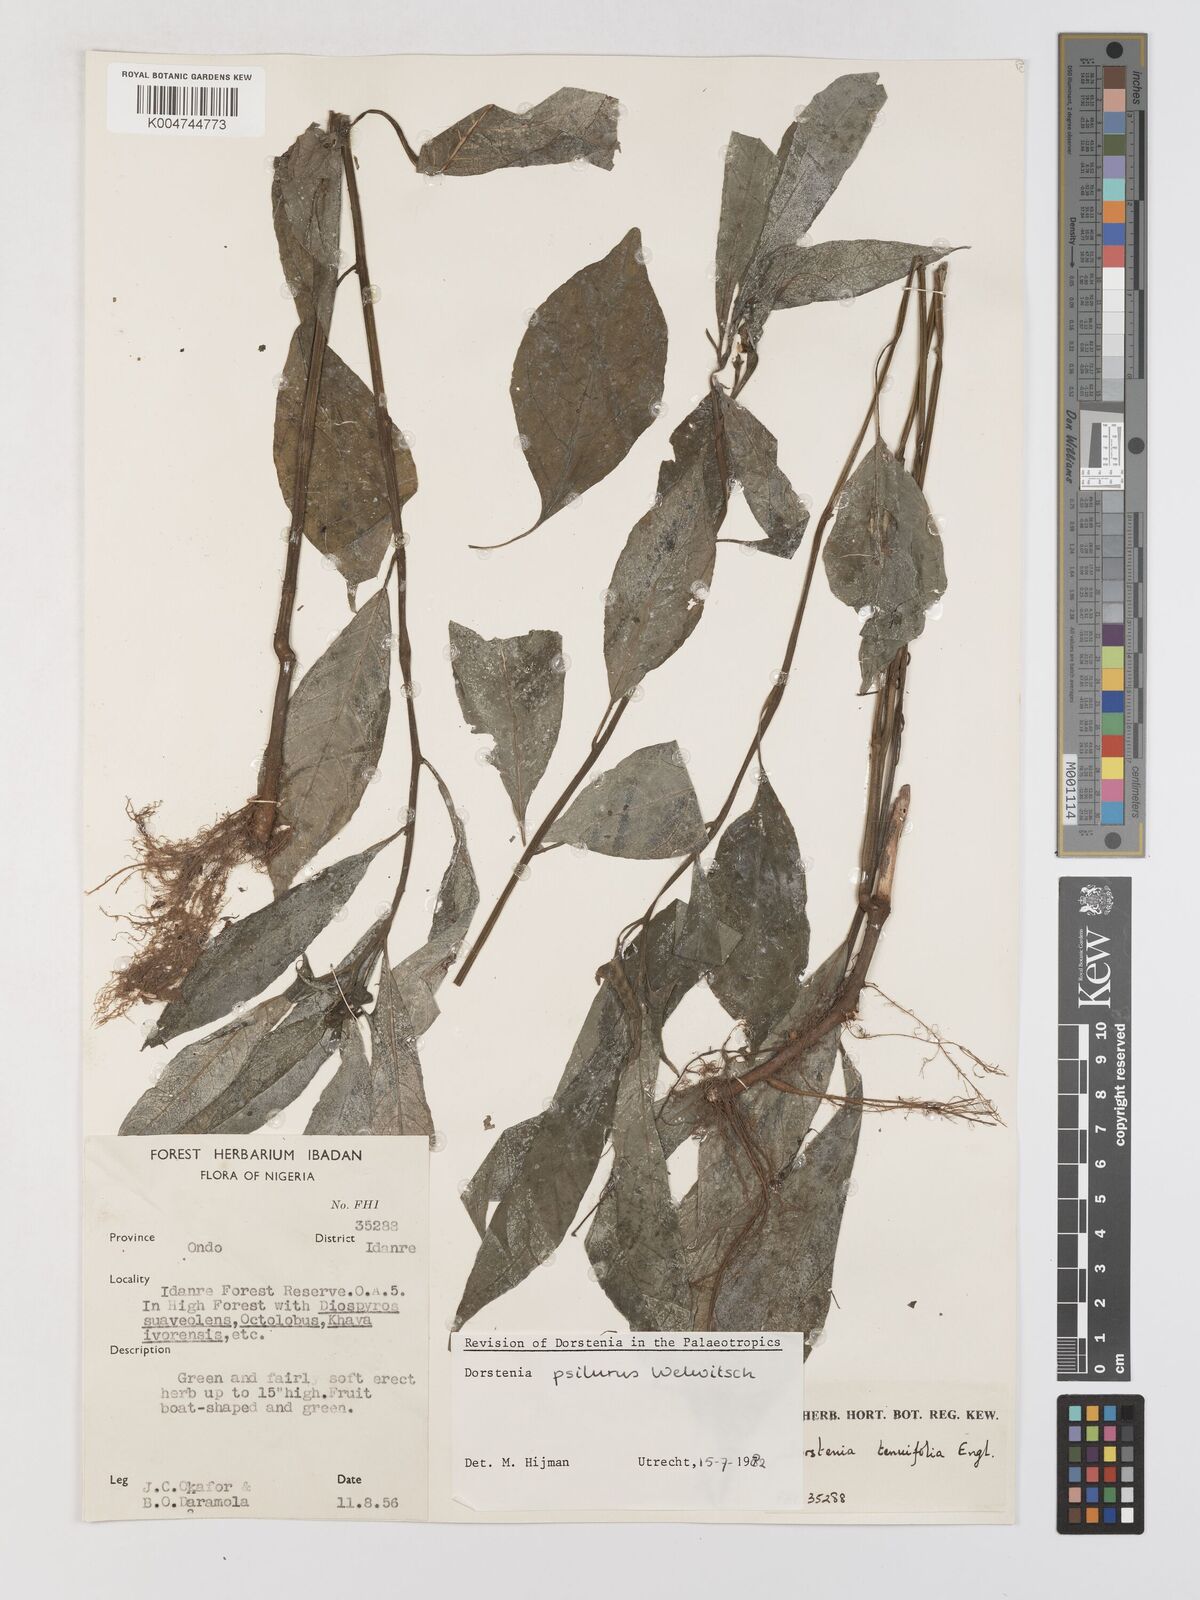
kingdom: Plantae
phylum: Tracheophyta
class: Magnoliopsida
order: Rosales
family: Moraceae
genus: Dorstenia
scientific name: Dorstenia psilurus
